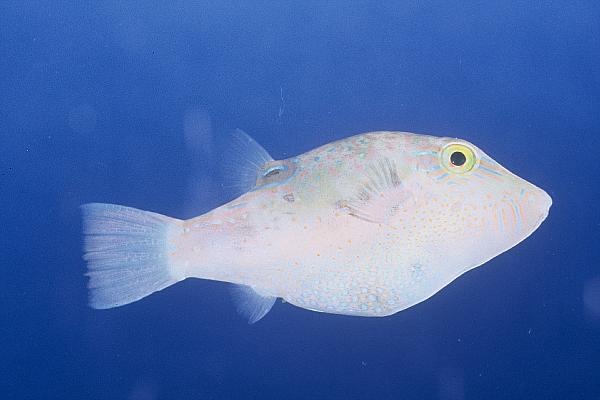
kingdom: Animalia
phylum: Chordata
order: Tetraodontiformes
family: Tetraodontidae
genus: Canthigaster
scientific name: Canthigaster bennetti
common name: Bennett's pufferfish
